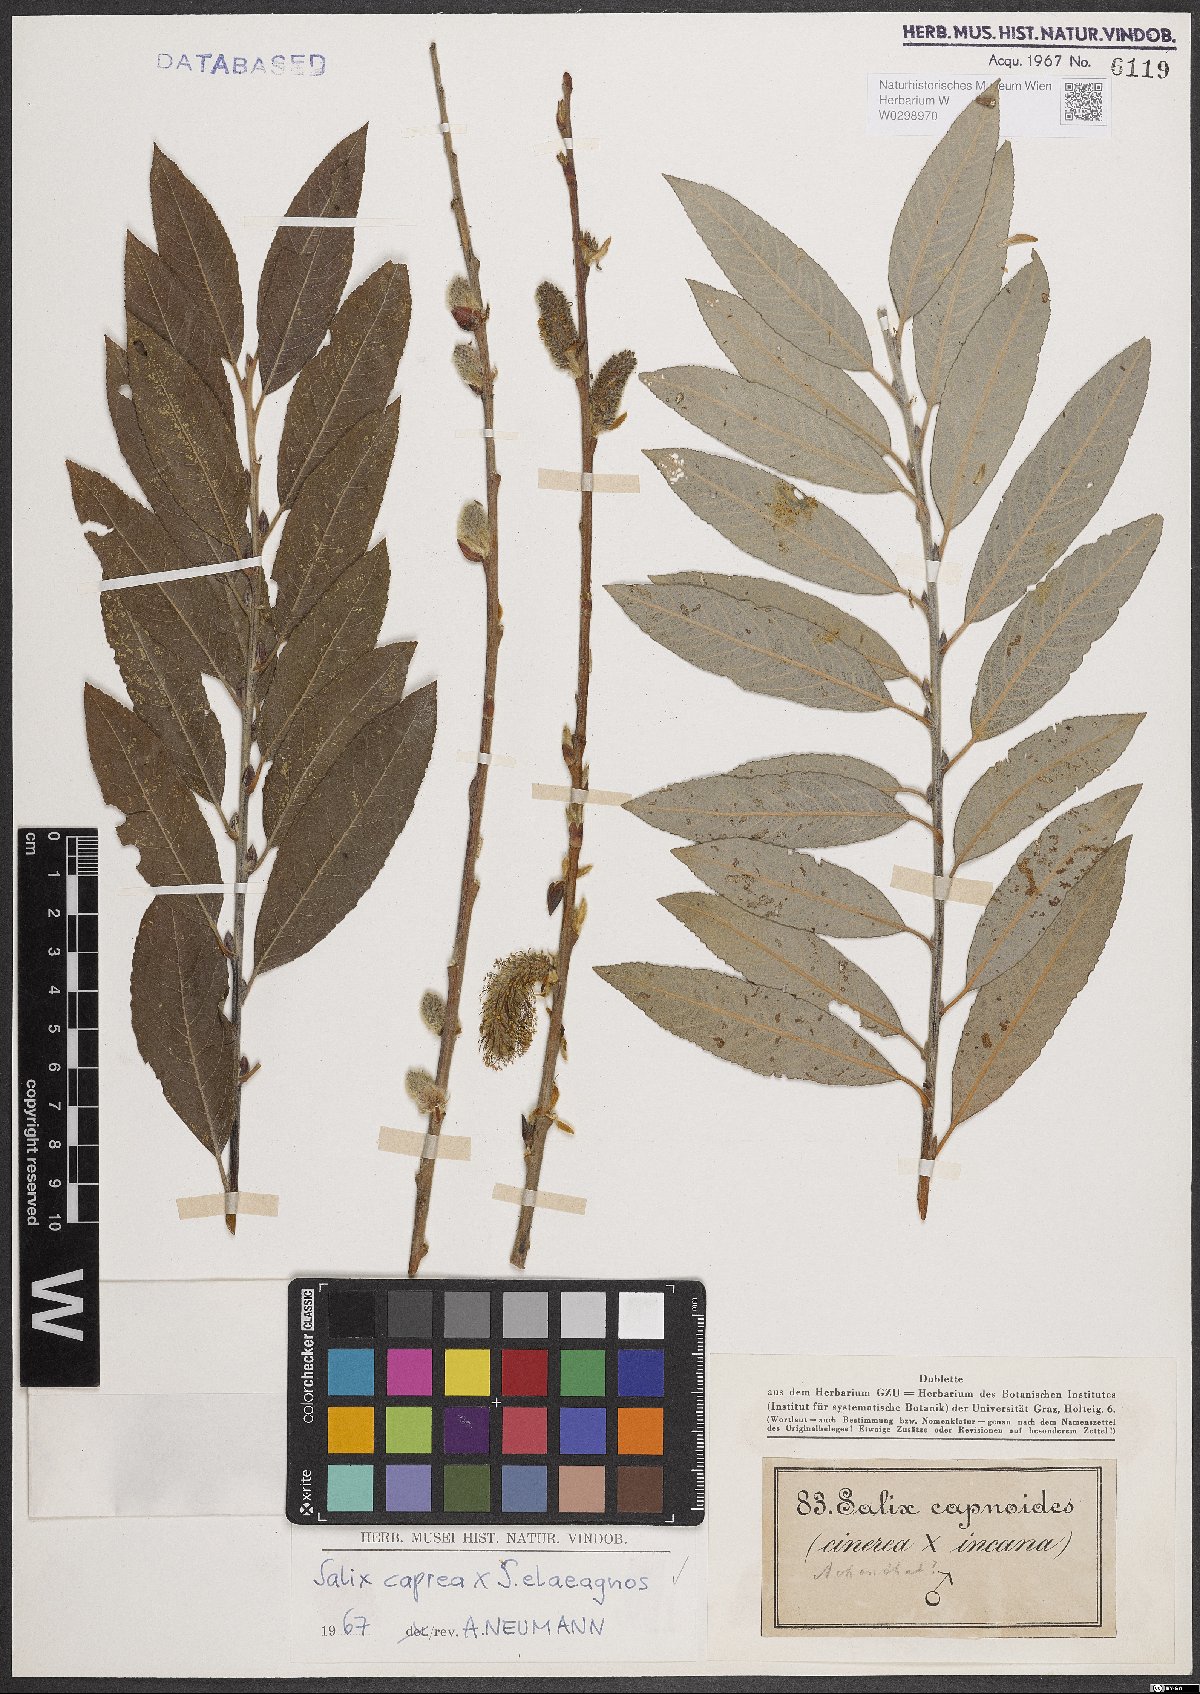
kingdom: Plantae
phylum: Tracheophyta
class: Magnoliopsida
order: Malpighiales
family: Salicaceae
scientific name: Salicaceae
